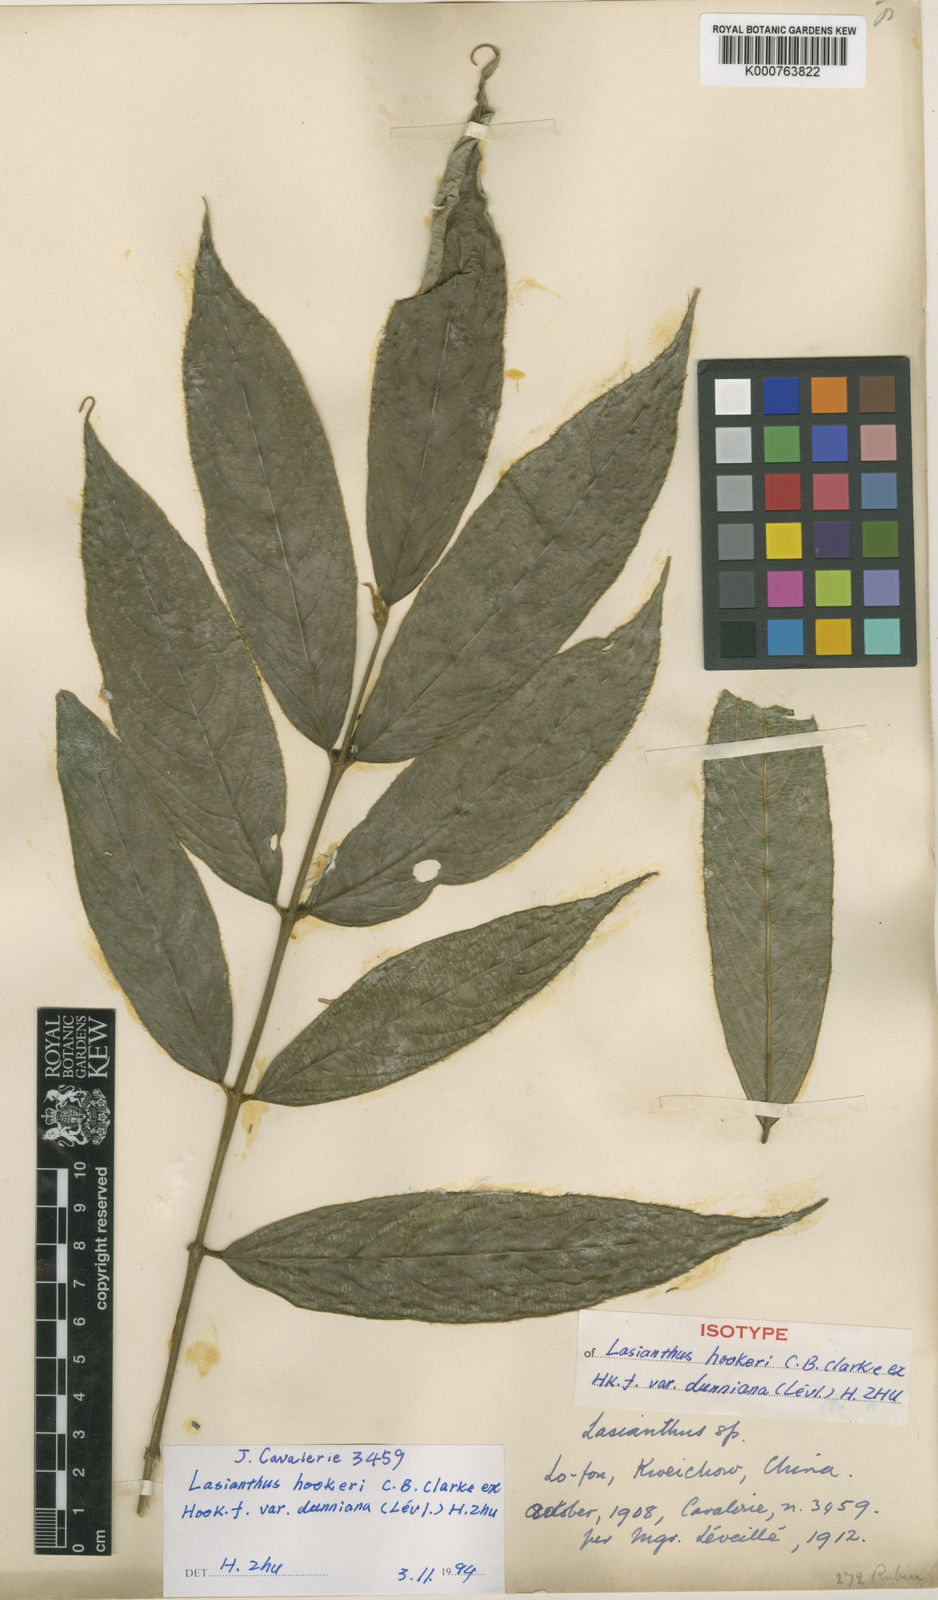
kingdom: Plantae
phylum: Tracheophyta
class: Magnoliopsida
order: Gentianales
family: Rubiaceae
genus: Lasianthus
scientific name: Lasianthus hookeri
